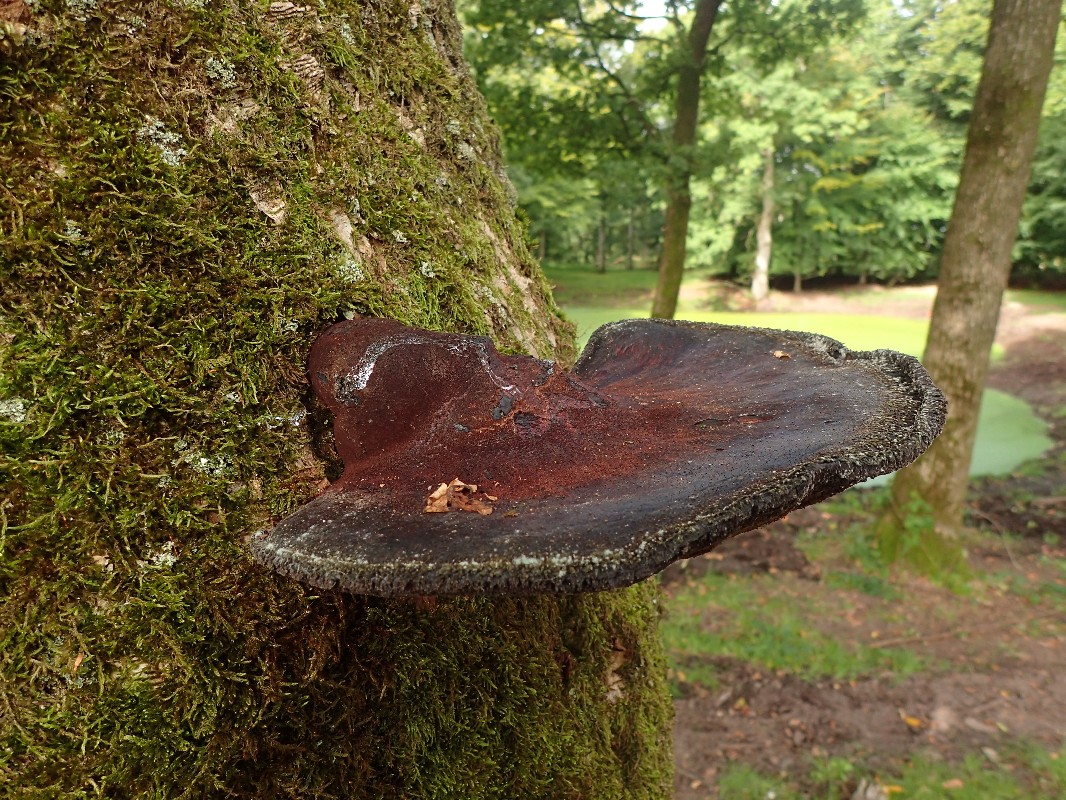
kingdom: Fungi
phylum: Basidiomycota
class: Agaricomycetes
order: Agaricales
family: Fistulinaceae
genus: Fistulina
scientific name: Fistulina hepatica
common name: oksetunge
